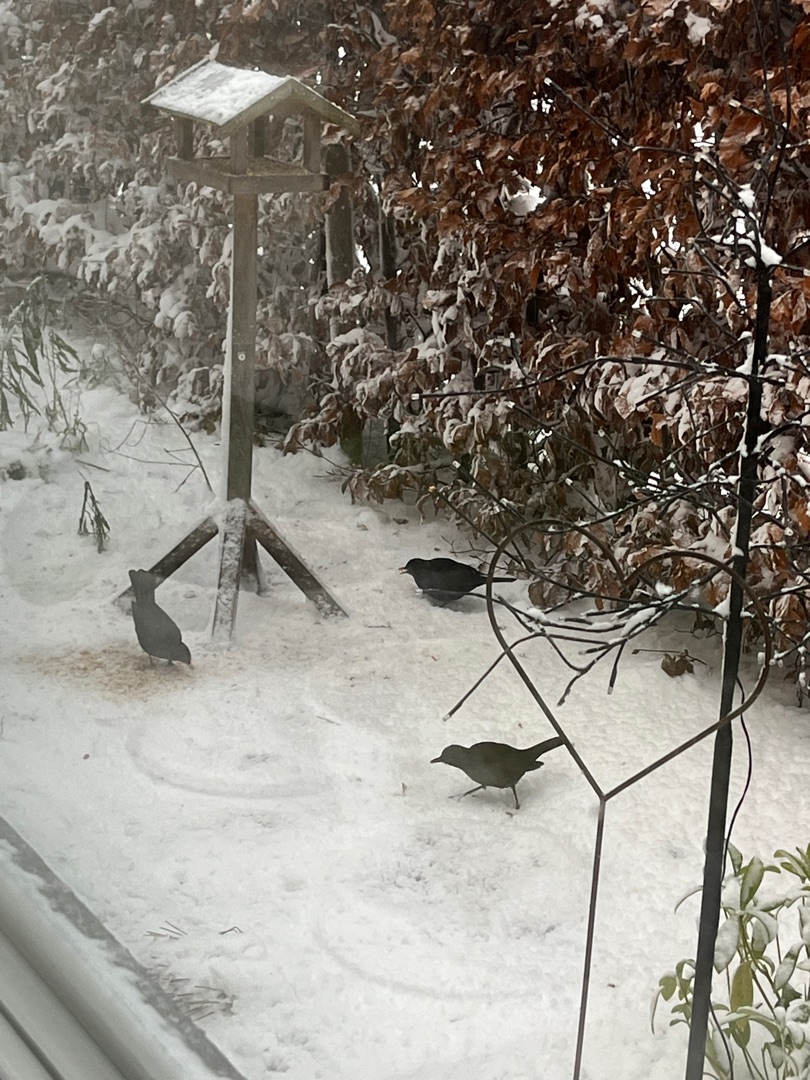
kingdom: Animalia
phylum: Chordata
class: Aves
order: Passeriformes
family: Turdidae
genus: Turdus
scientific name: Turdus merula
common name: Solsort
